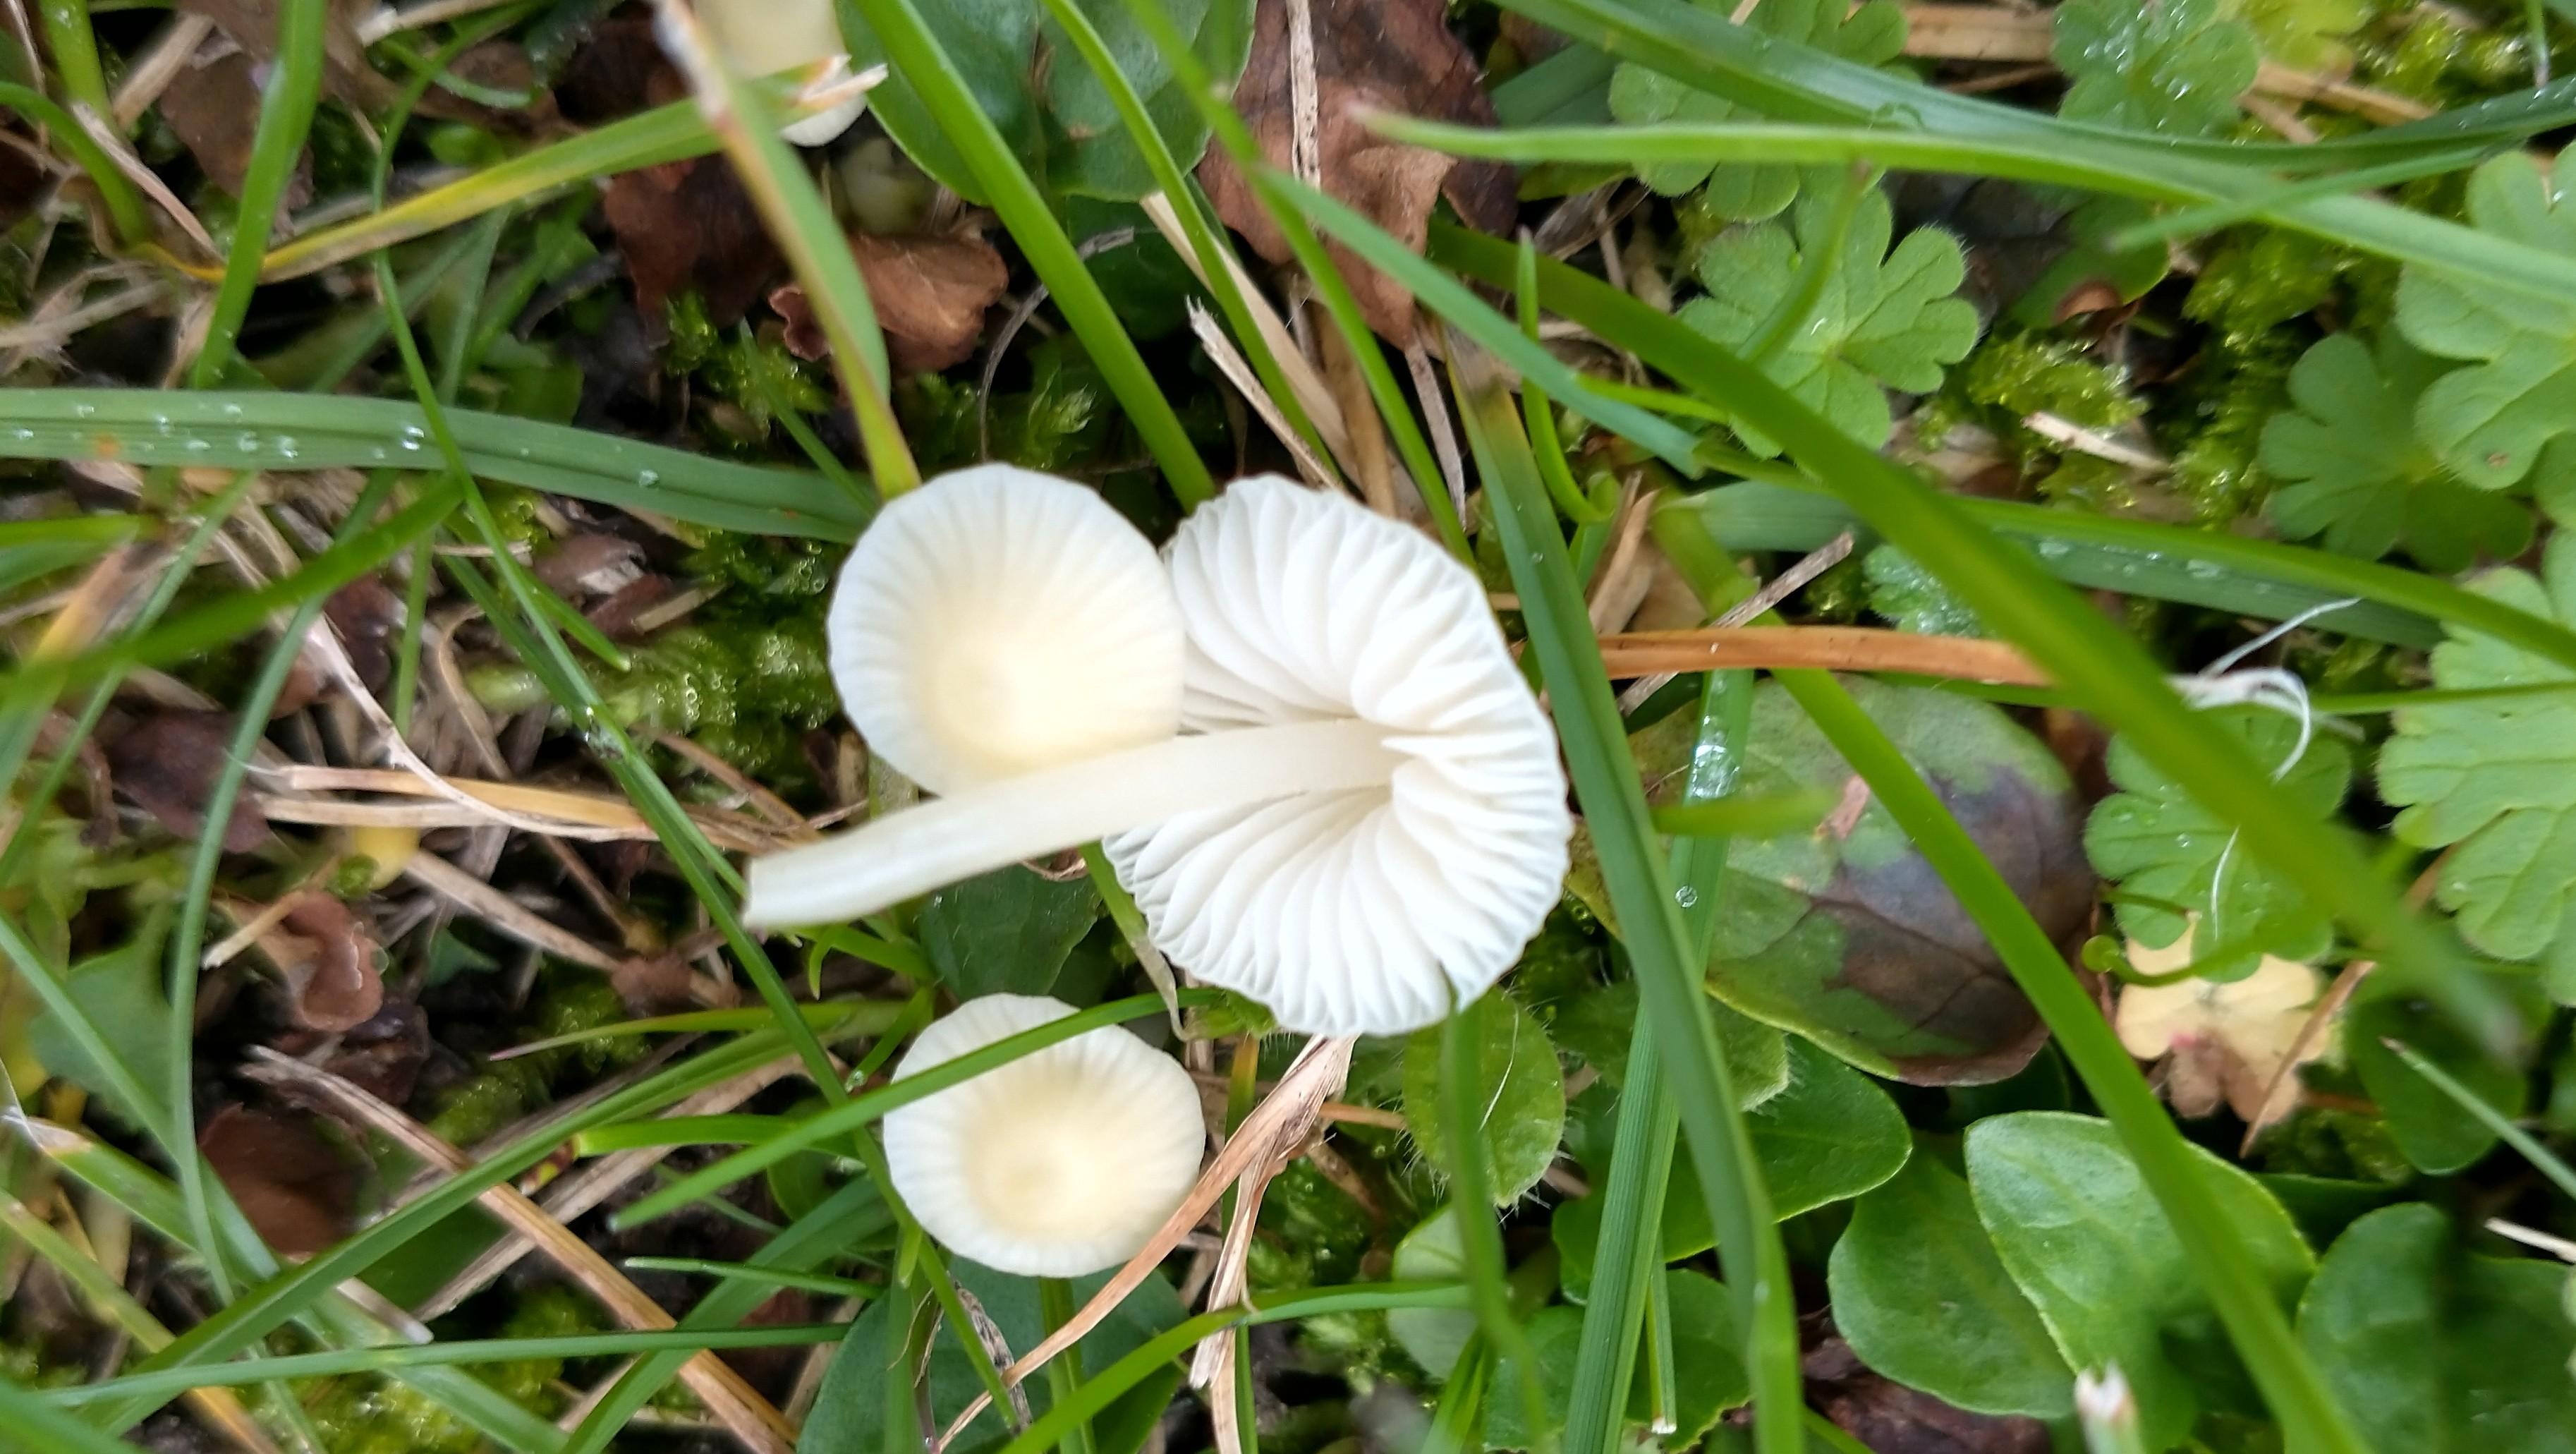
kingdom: Fungi
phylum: Basidiomycota
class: Agaricomycetes
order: Agaricales
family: Mycenaceae
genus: Atheniella
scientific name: Atheniella flavoalba
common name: gulhvid huesvamp
